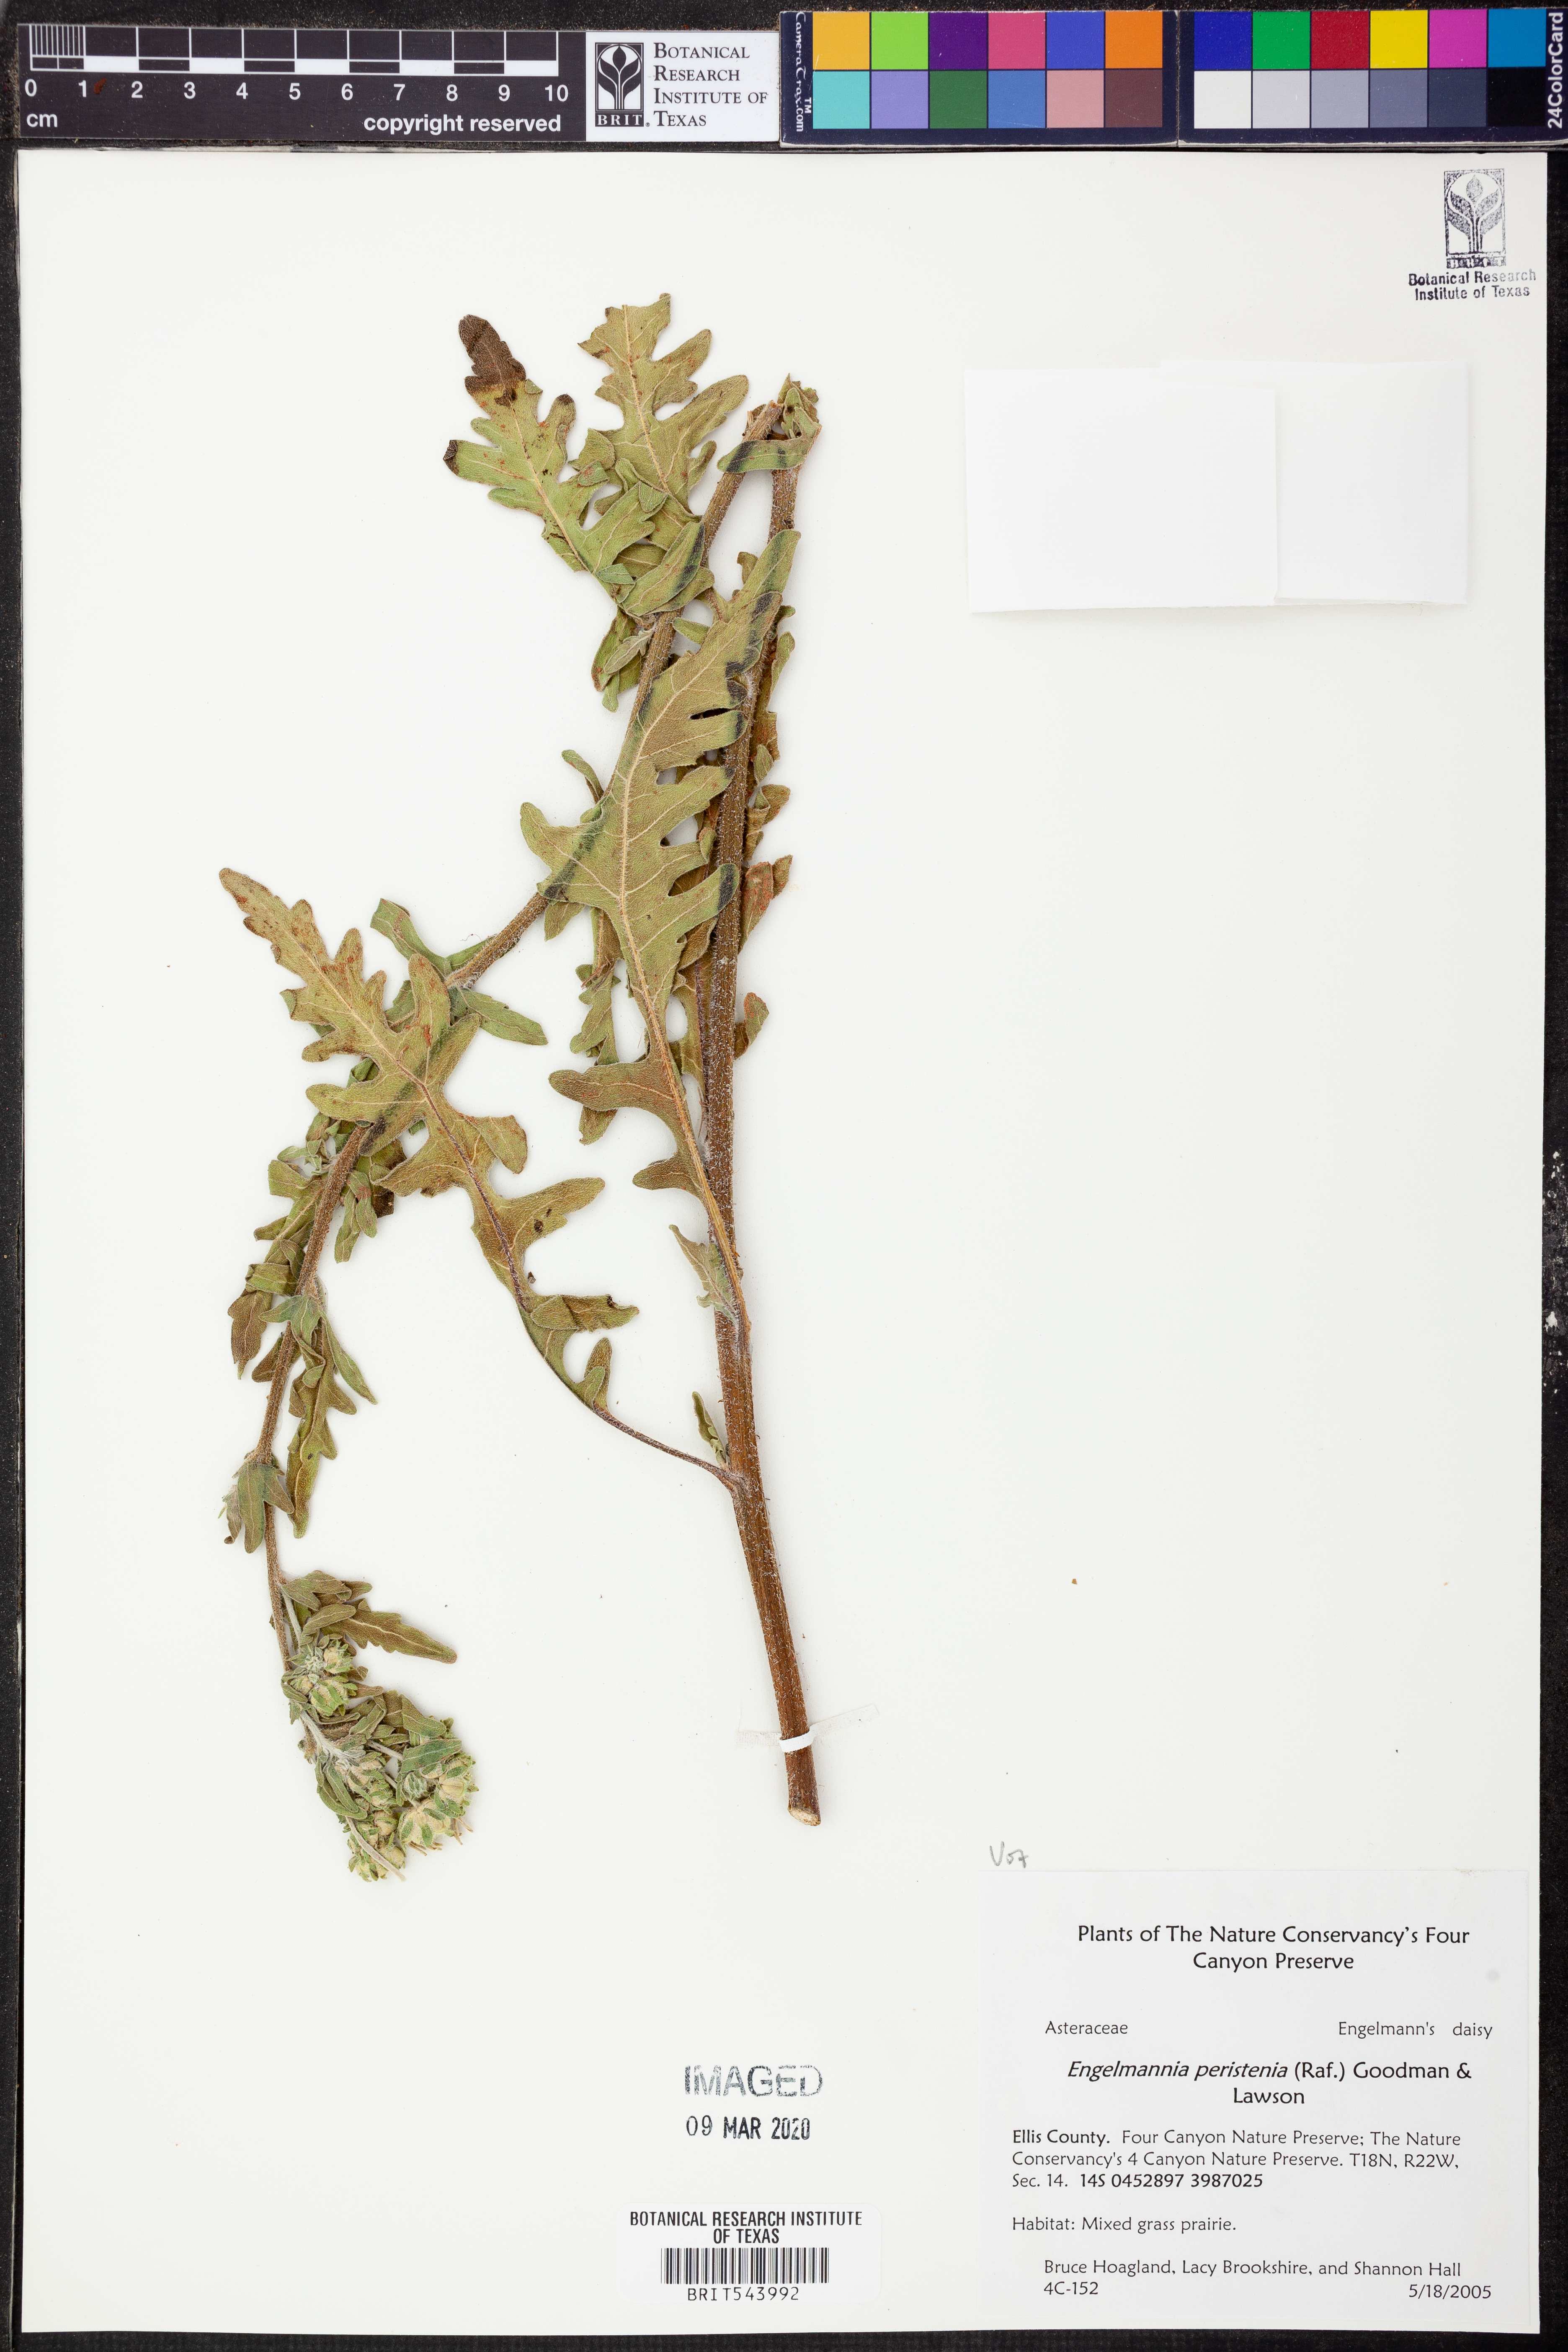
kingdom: Plantae
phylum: Tracheophyta
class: Magnoliopsida
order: Asterales
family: Asteraceae
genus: Engelmannia
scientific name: Engelmannia peristenia
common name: Engelmann's daisy
